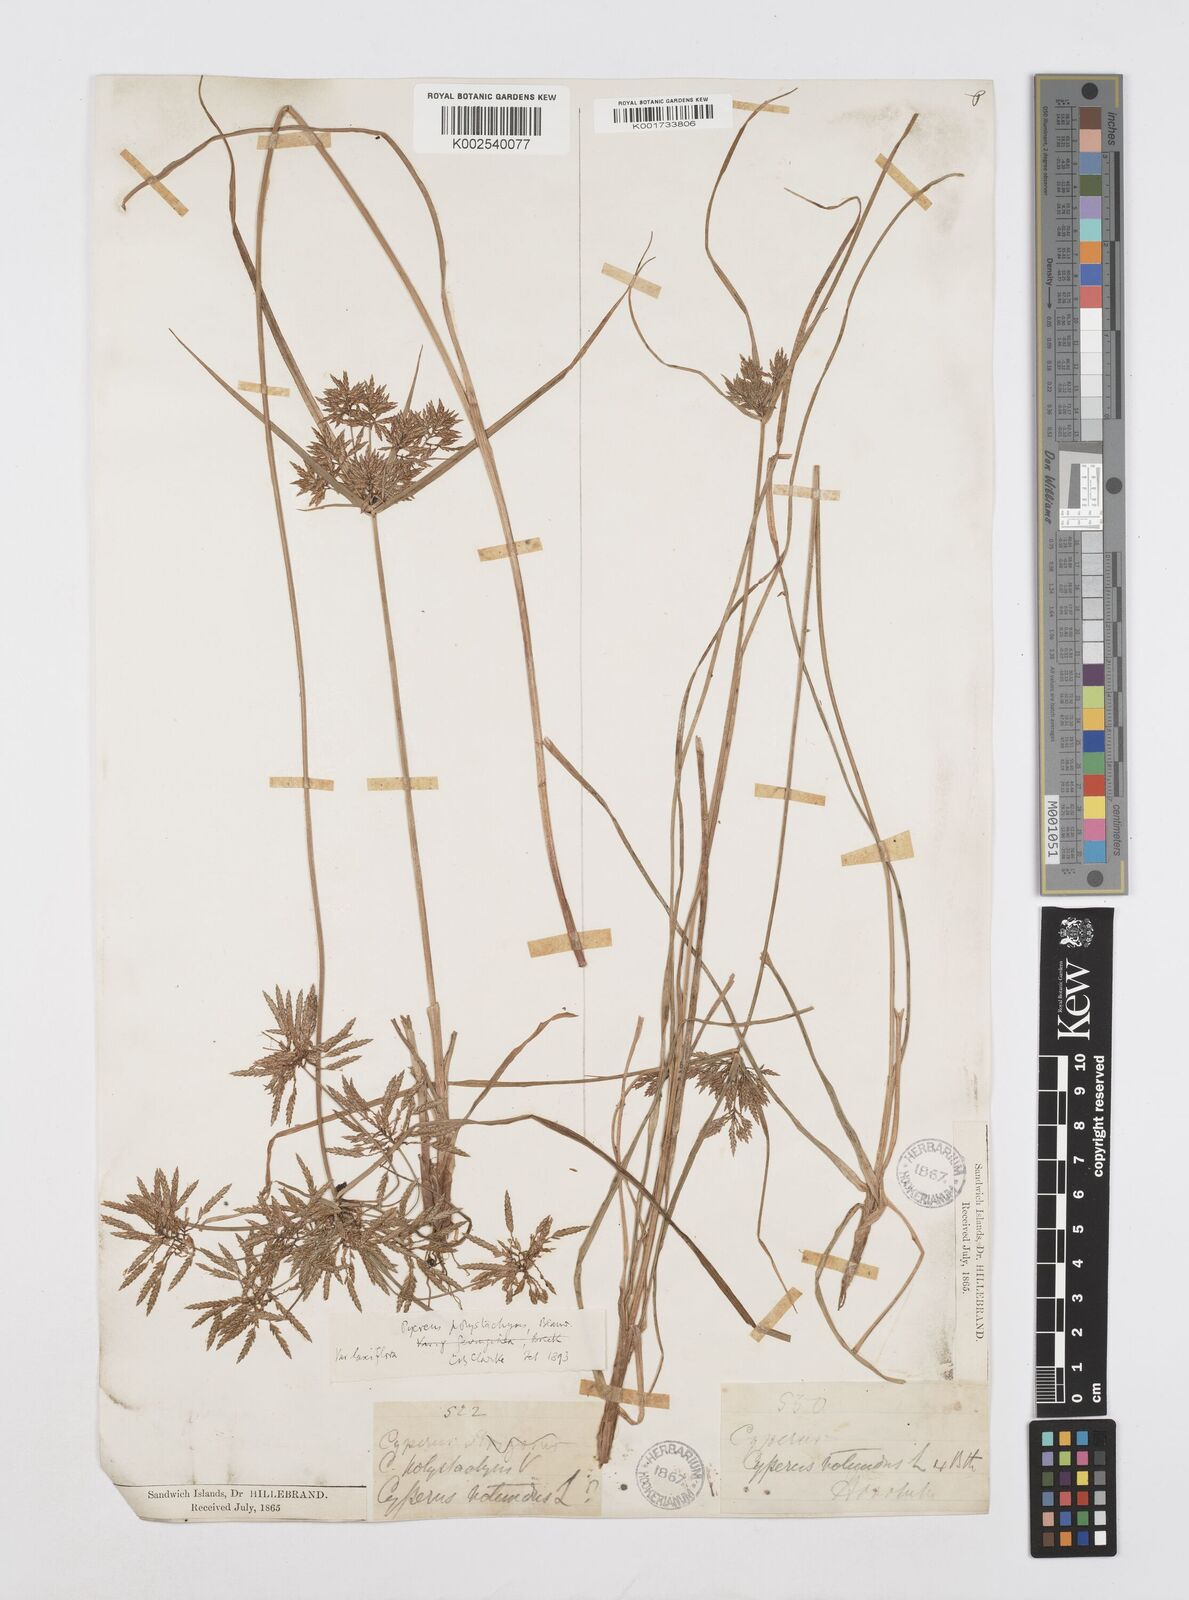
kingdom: Plantae
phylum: Tracheophyta
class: Liliopsida
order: Poales
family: Cyperaceae
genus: Cyperus
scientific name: Cyperus polystachyos
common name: Bunchy flat sedge
